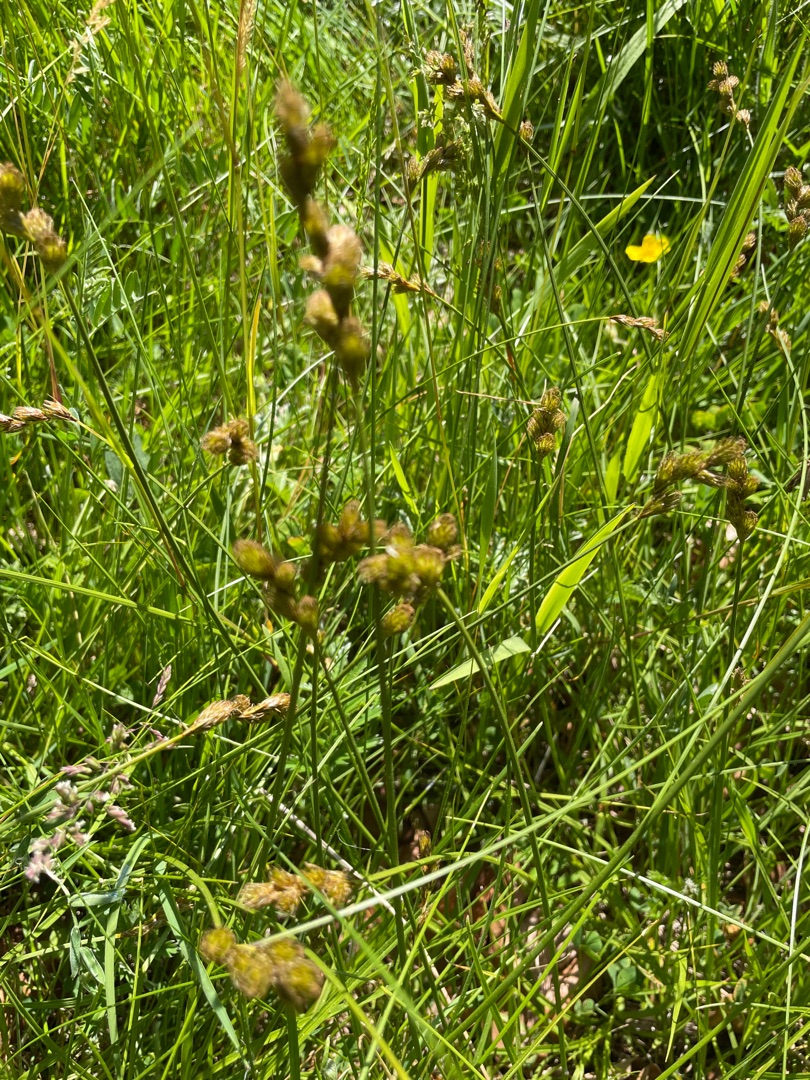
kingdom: Plantae
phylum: Tracheophyta
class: Liliopsida
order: Poales
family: Cyperaceae
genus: Carex
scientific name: Carex leporina
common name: Hare-star
